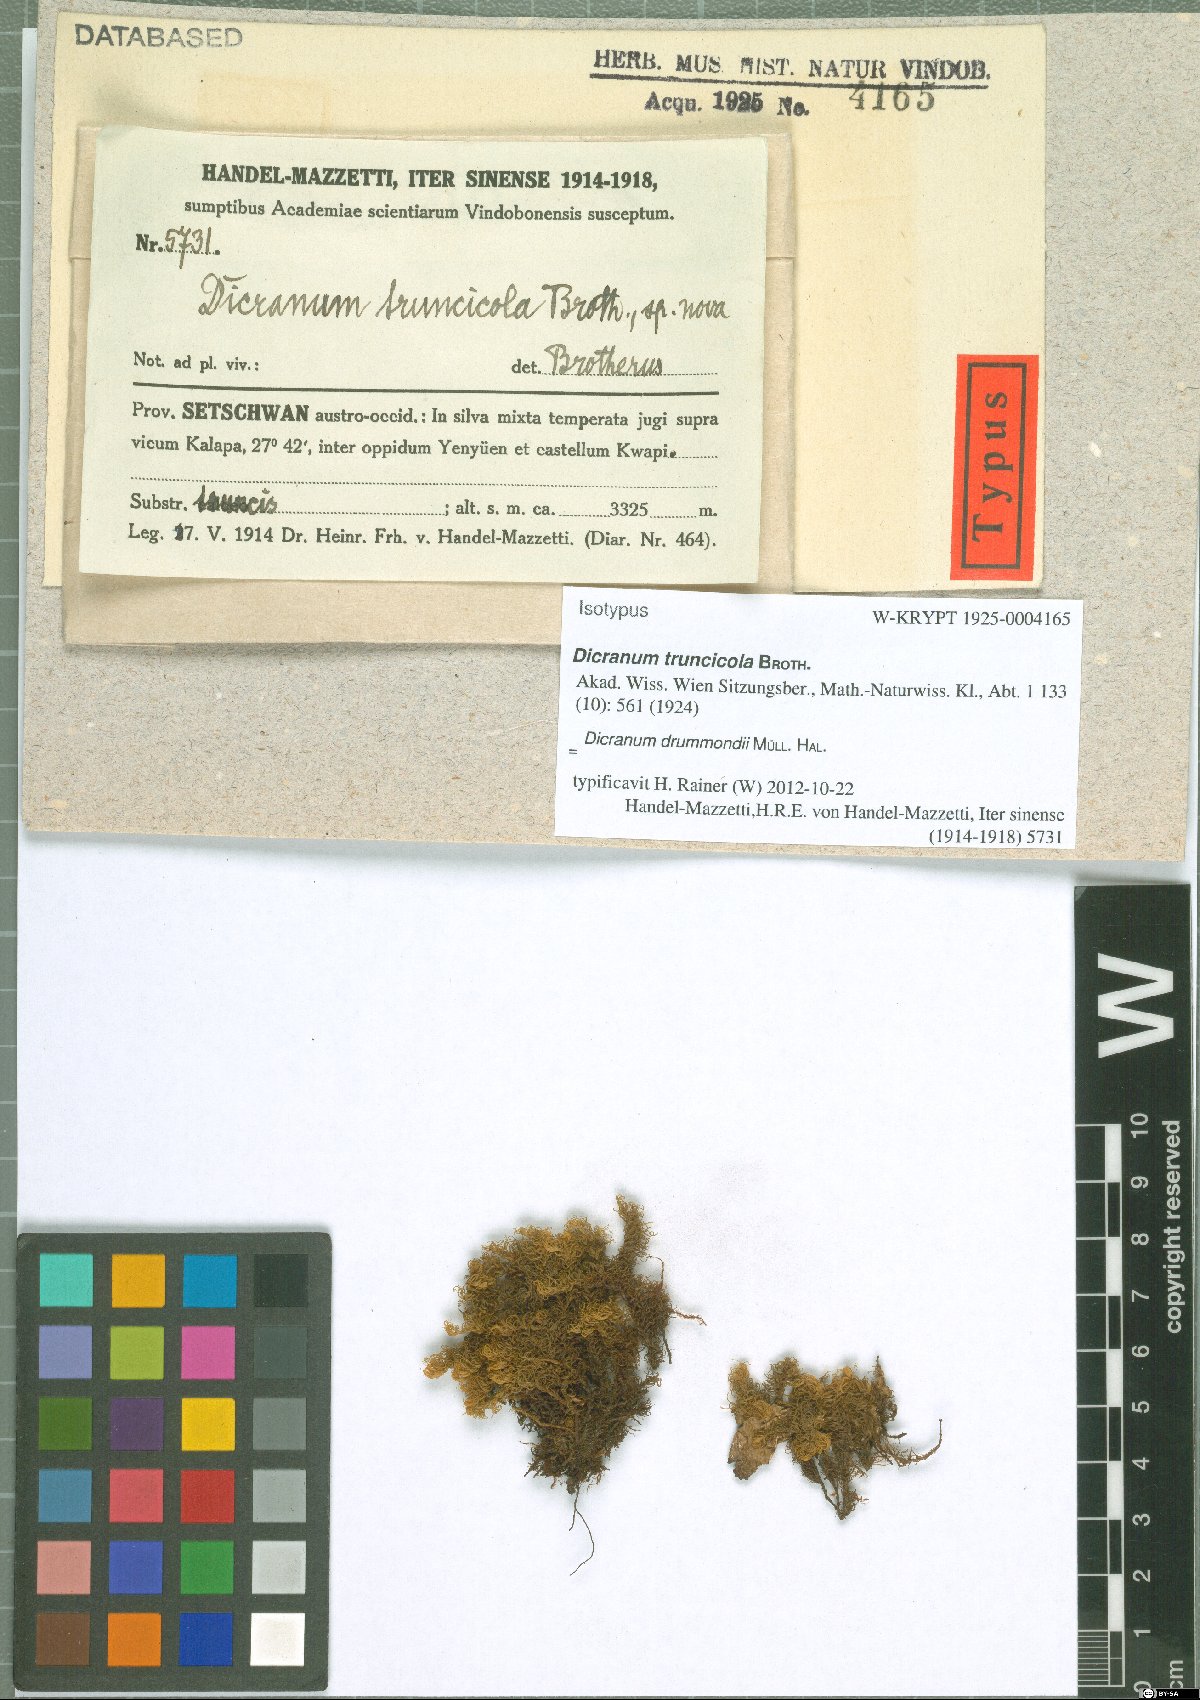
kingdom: Plantae
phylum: Bryophyta
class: Bryopsida
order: Dicranales
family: Dicranaceae
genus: Dicranum
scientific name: Dicranum drummondii
